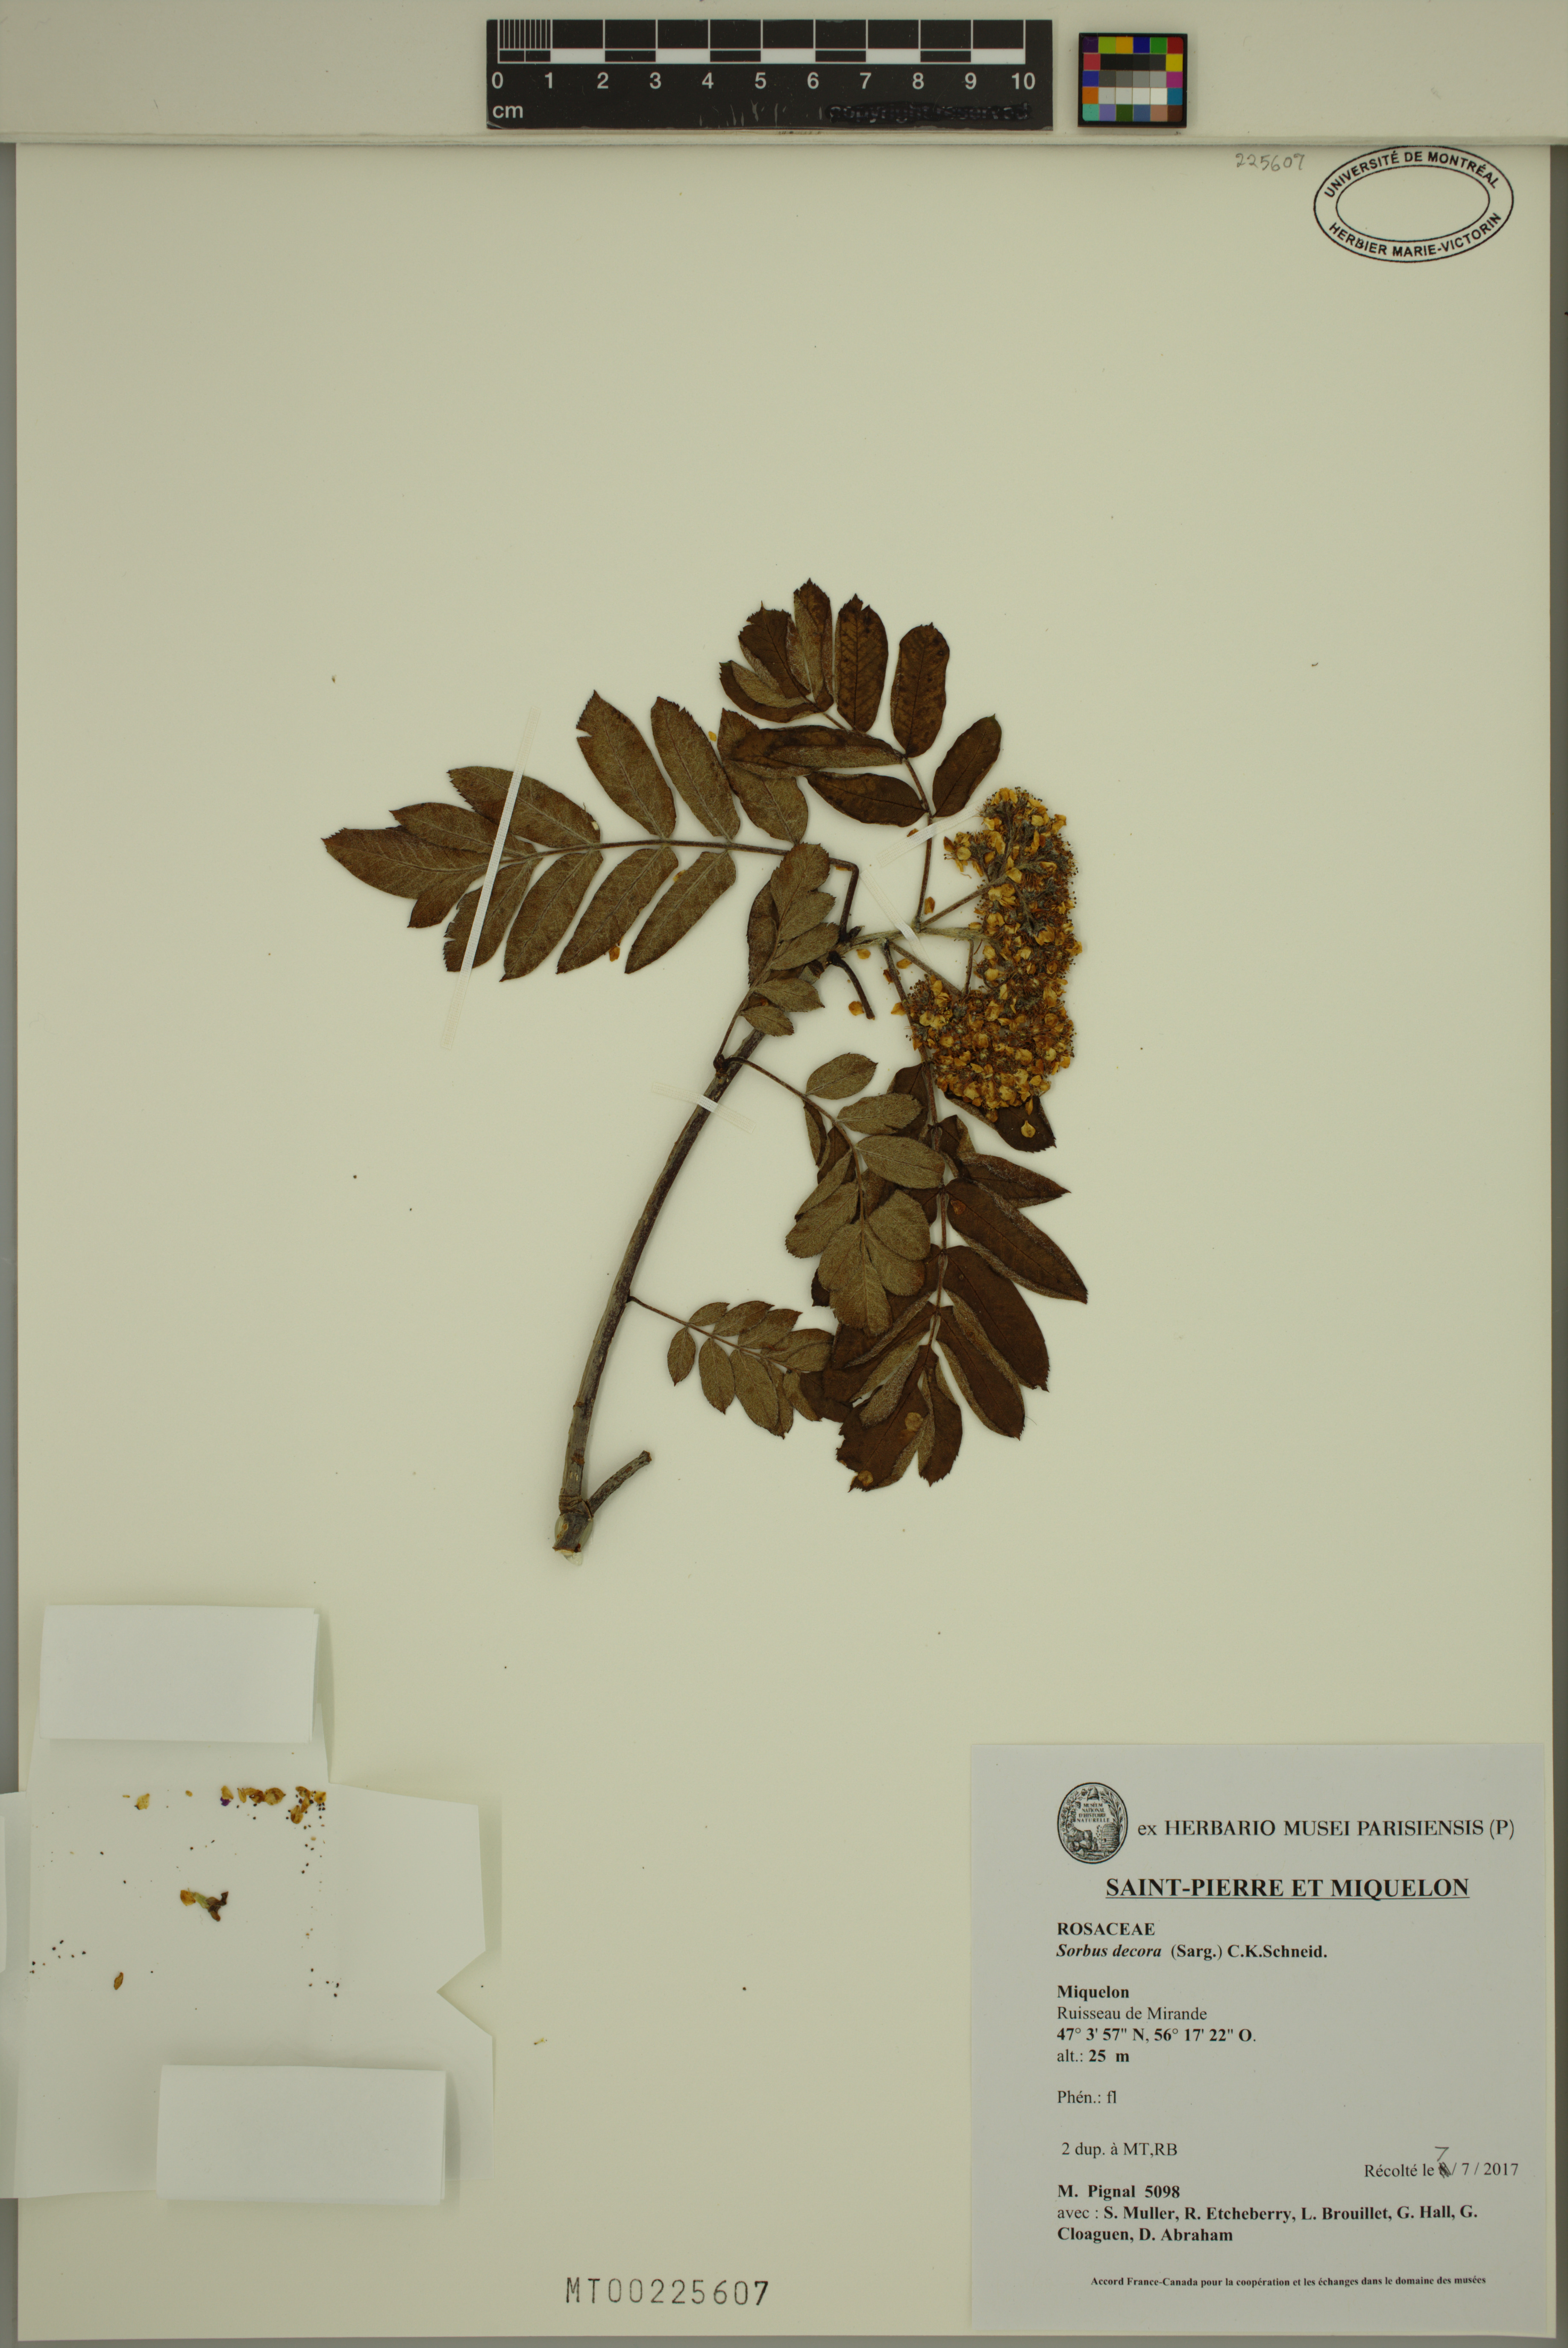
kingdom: Plantae
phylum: Tracheophyta
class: Magnoliopsida
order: Rosales
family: Rosaceae
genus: Sorbus
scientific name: Sorbus decora
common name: Northern mountain-ash
